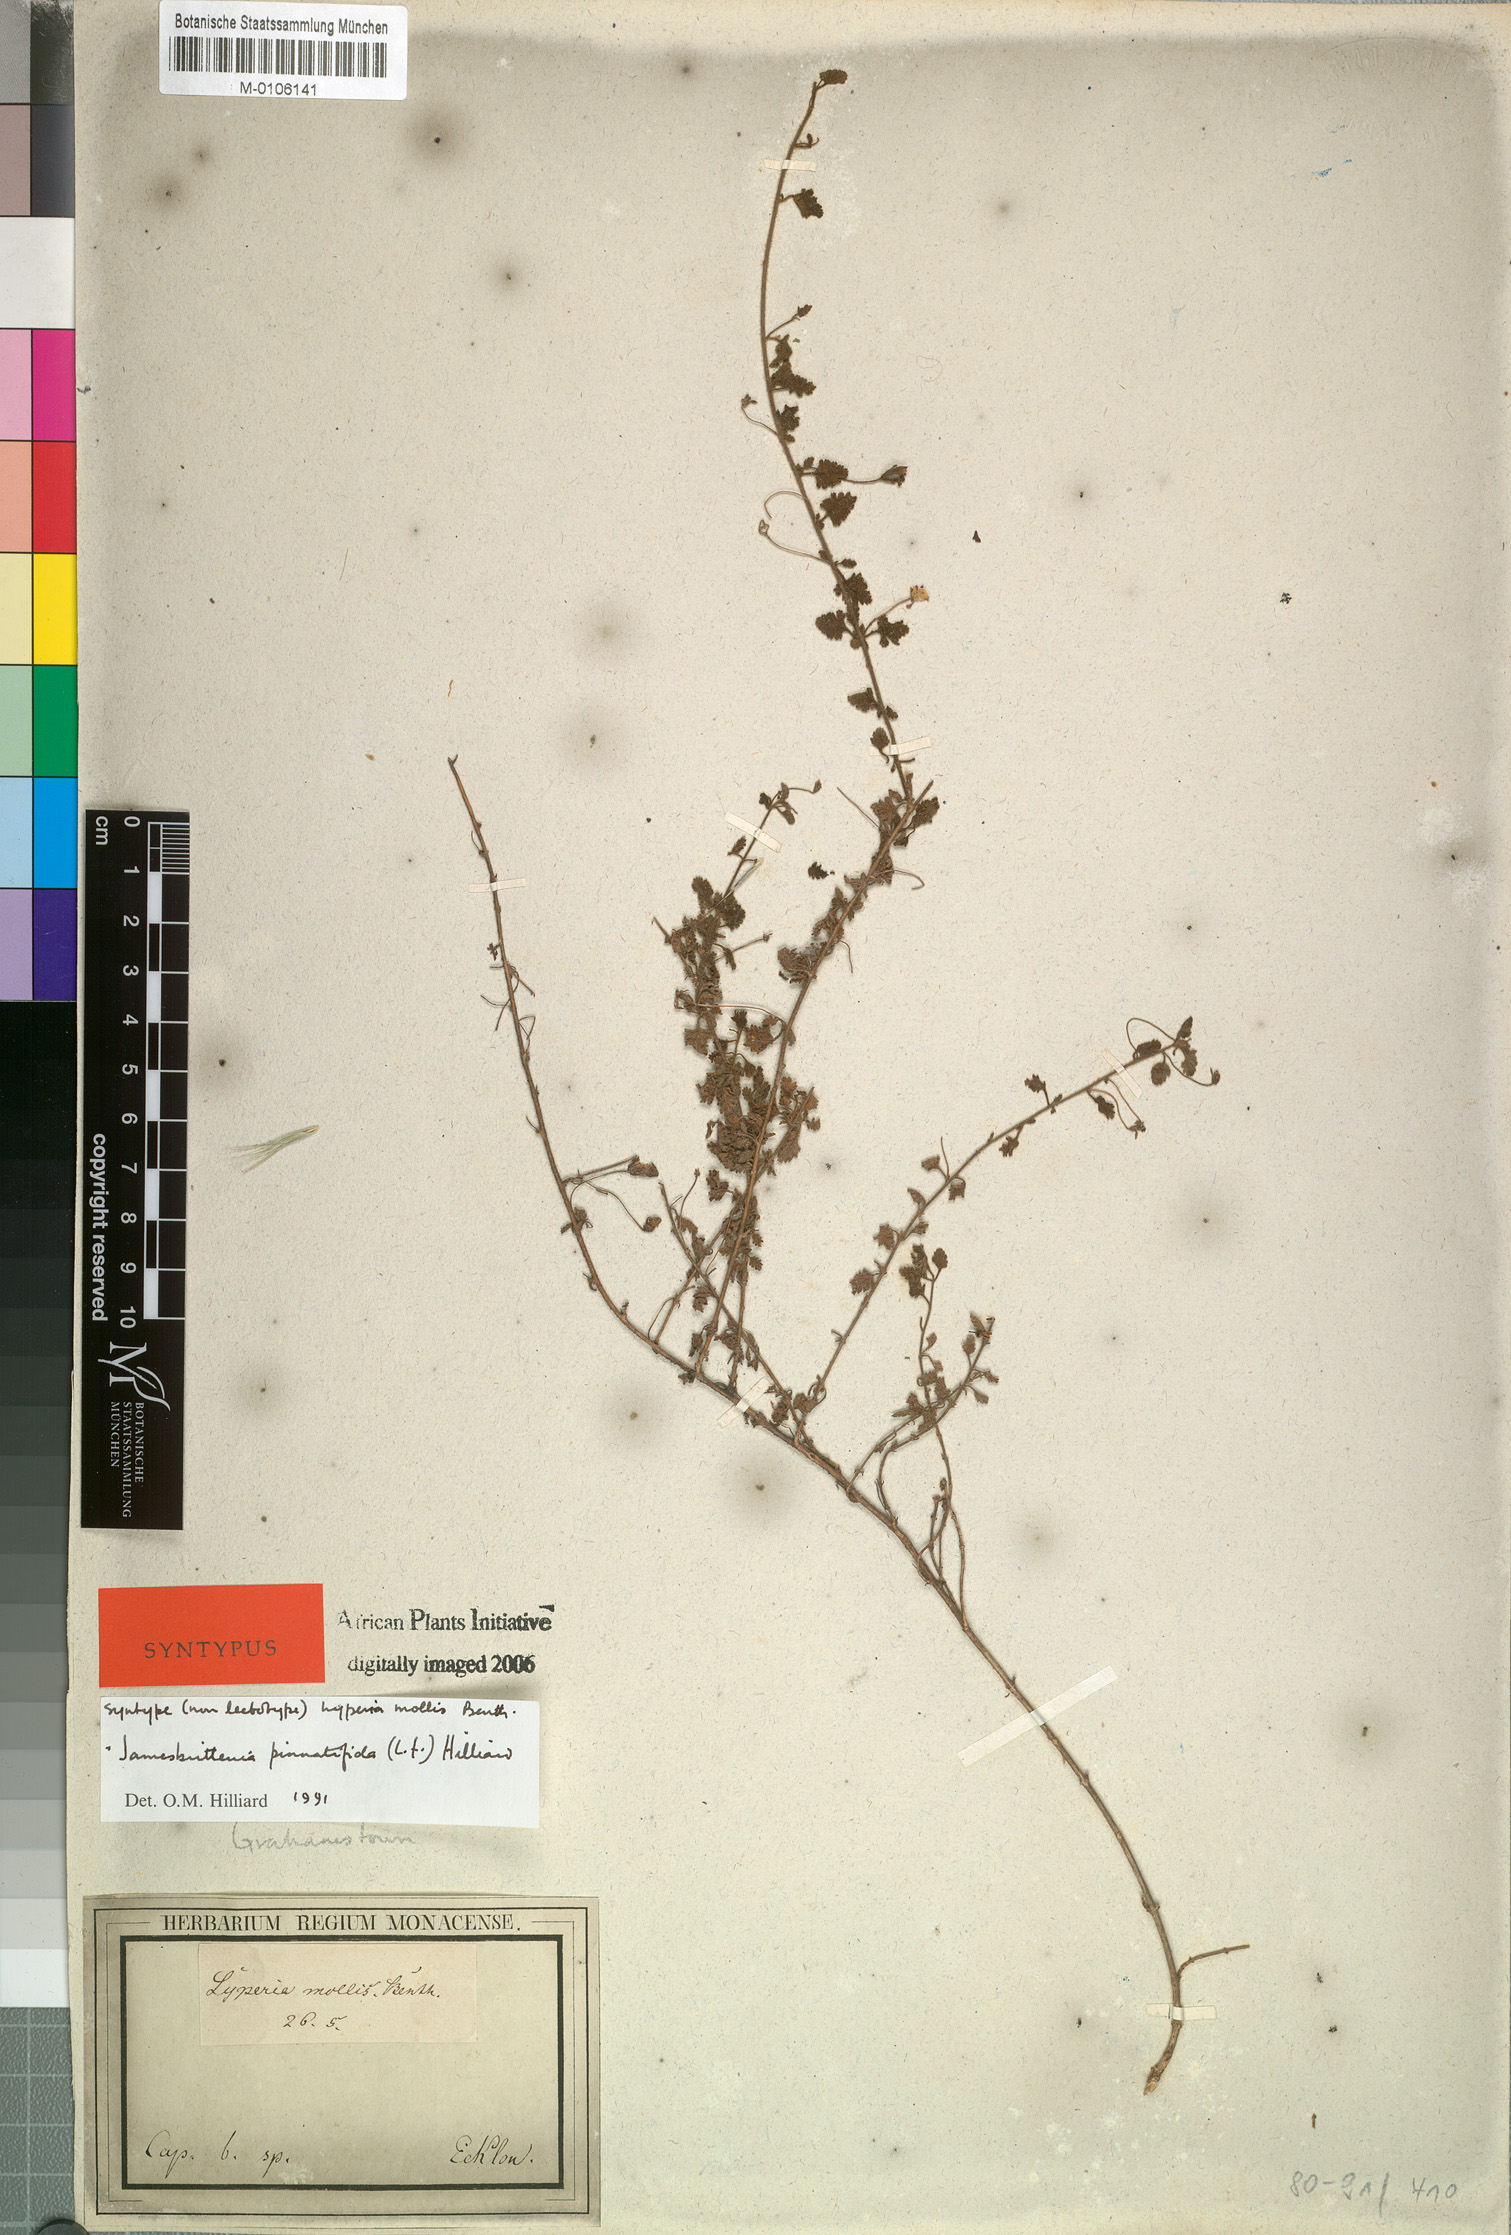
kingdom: Plantae
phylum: Tracheophyta
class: Magnoliopsida
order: Lamiales
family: Scrophulariaceae
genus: Jamesbrittenia
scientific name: Jamesbrittenia pinnatifida
